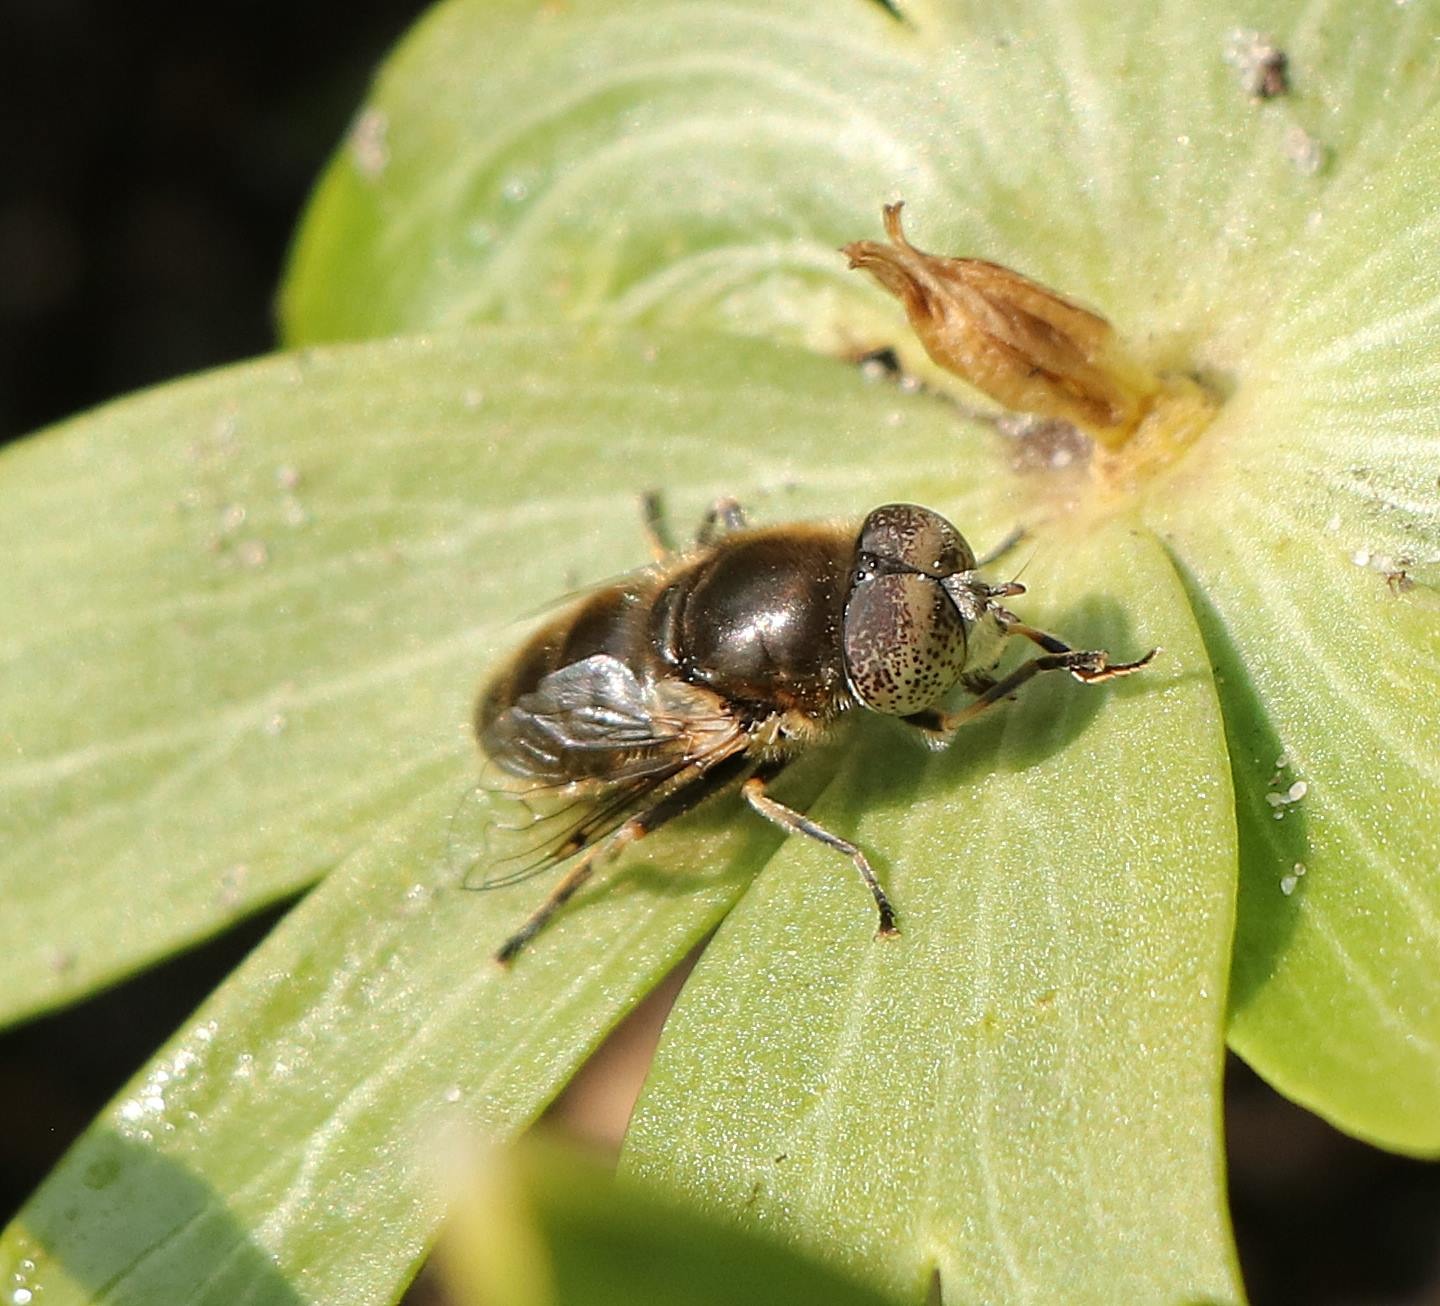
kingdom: Animalia
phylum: Arthropoda
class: Insecta
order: Diptera
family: Syrphidae
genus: Eristalinus
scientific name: Eristalinus aeneus
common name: Brakvands-dyndflue
